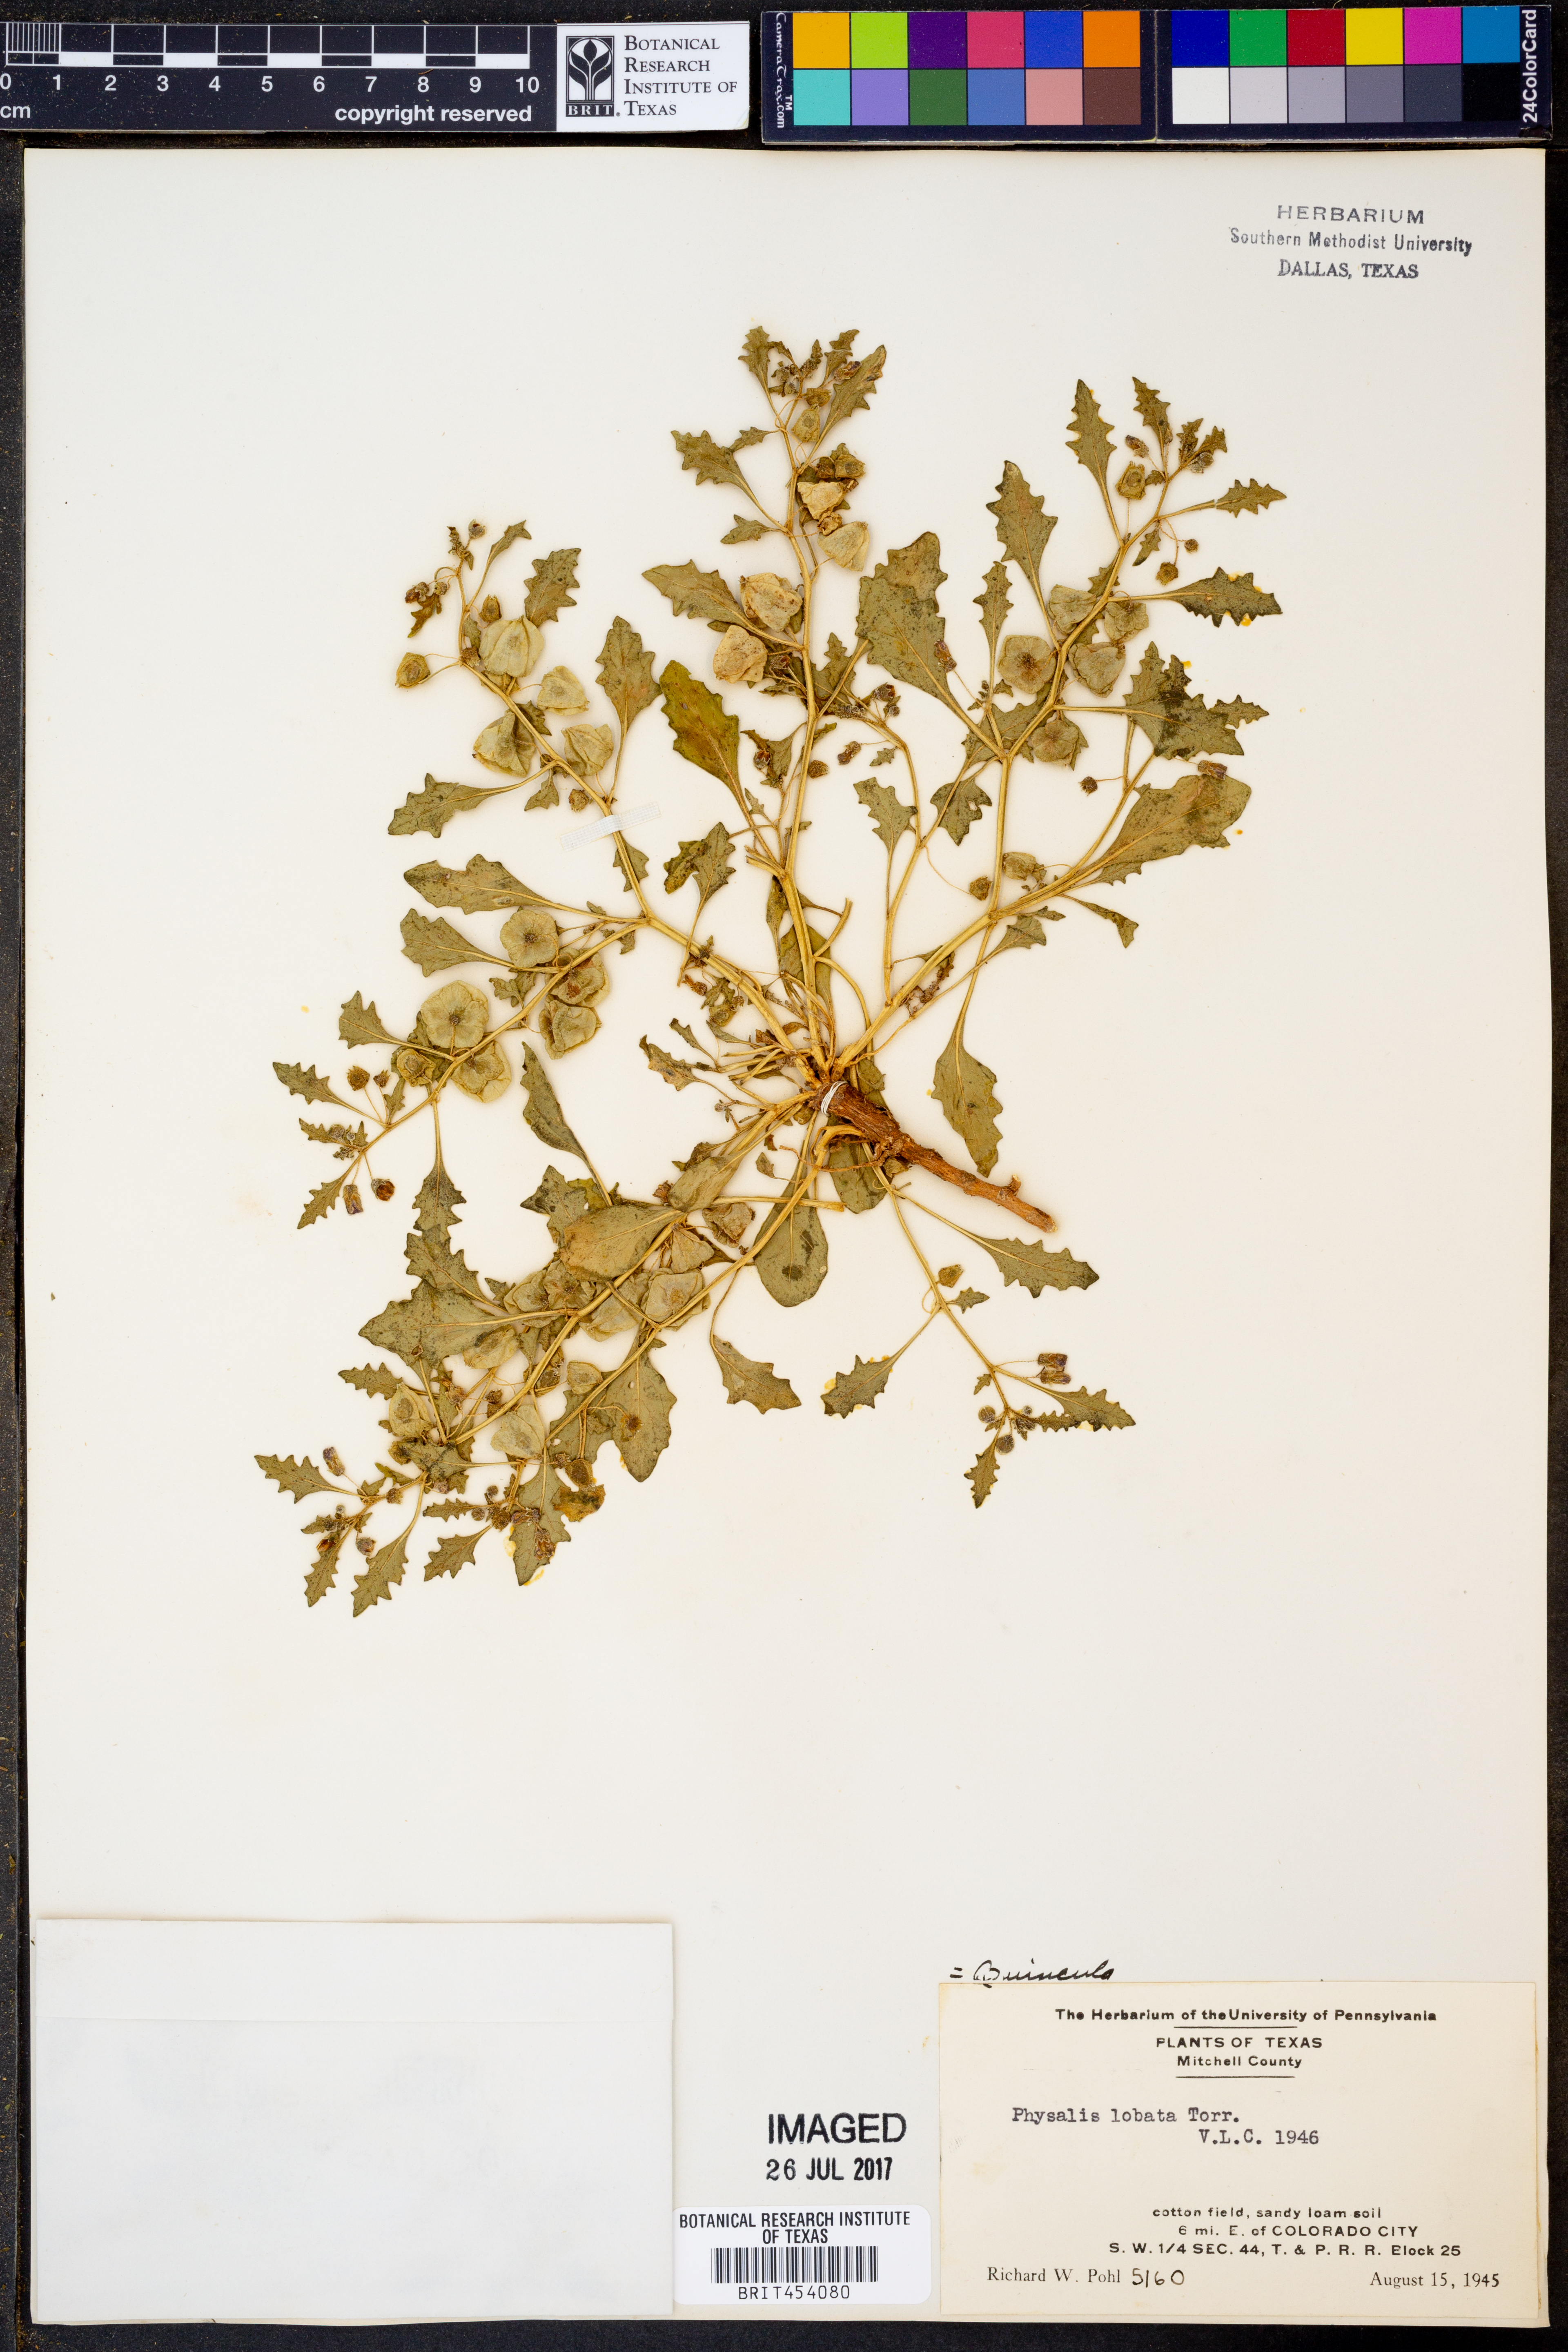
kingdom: Plantae
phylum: Tracheophyta
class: Magnoliopsida
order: Solanales
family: Solanaceae
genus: Quincula
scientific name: Quincula lobata
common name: Purple-ground-cherry
